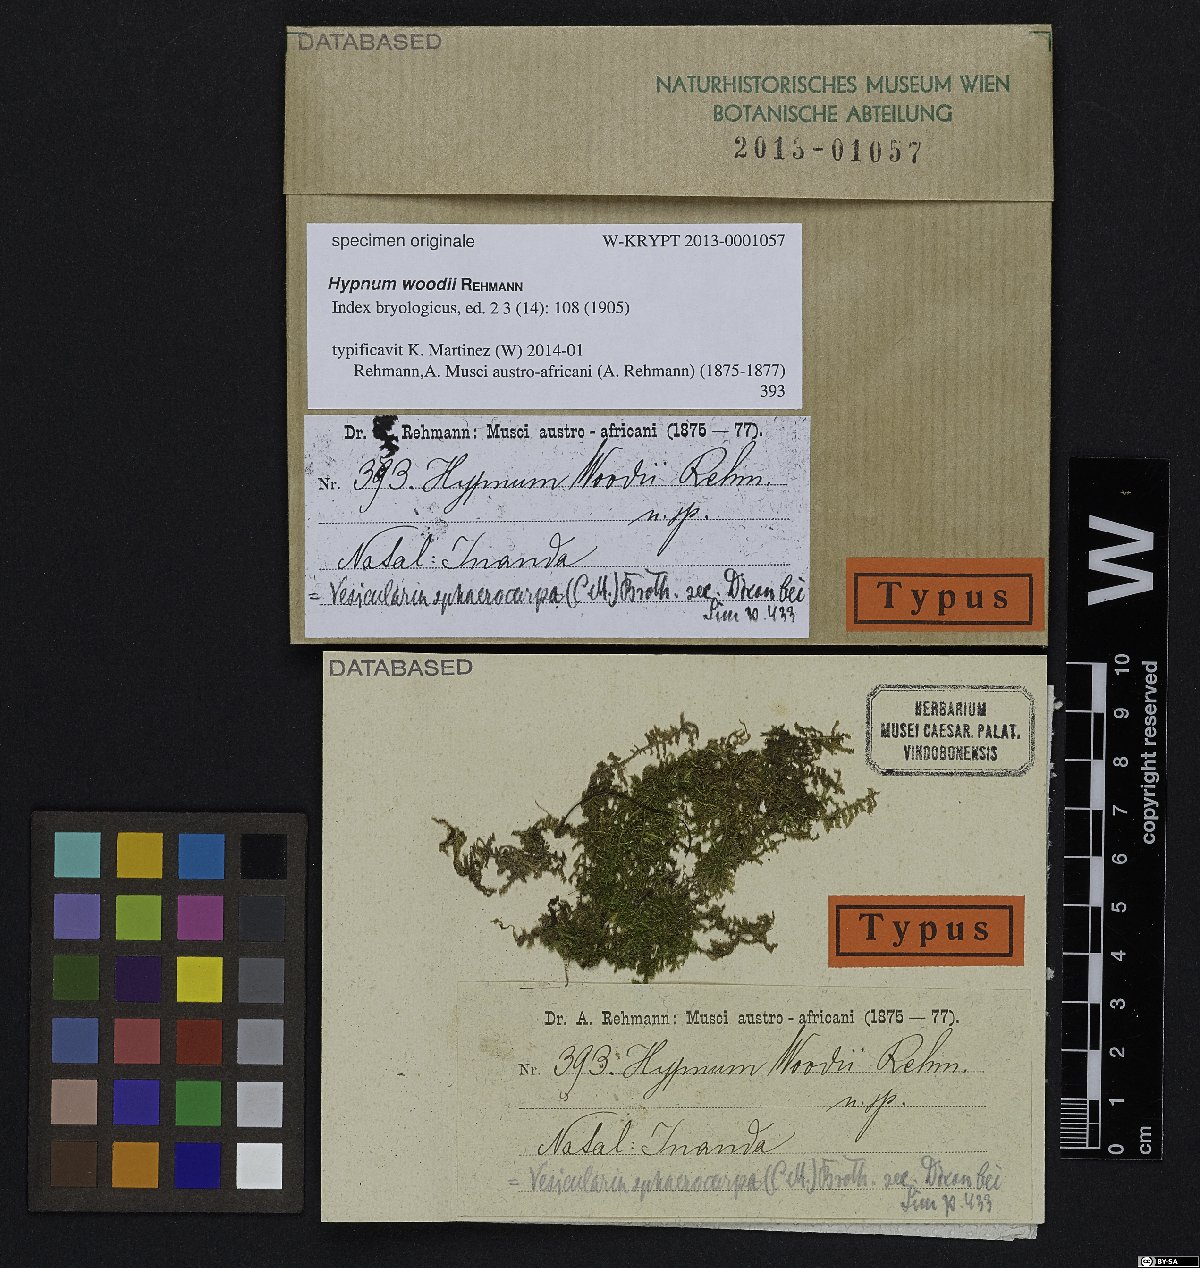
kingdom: Plantae
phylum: Bryophyta
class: Bryopsida
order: Hypnales
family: Hypnaceae
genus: Hypnum
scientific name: Hypnum
